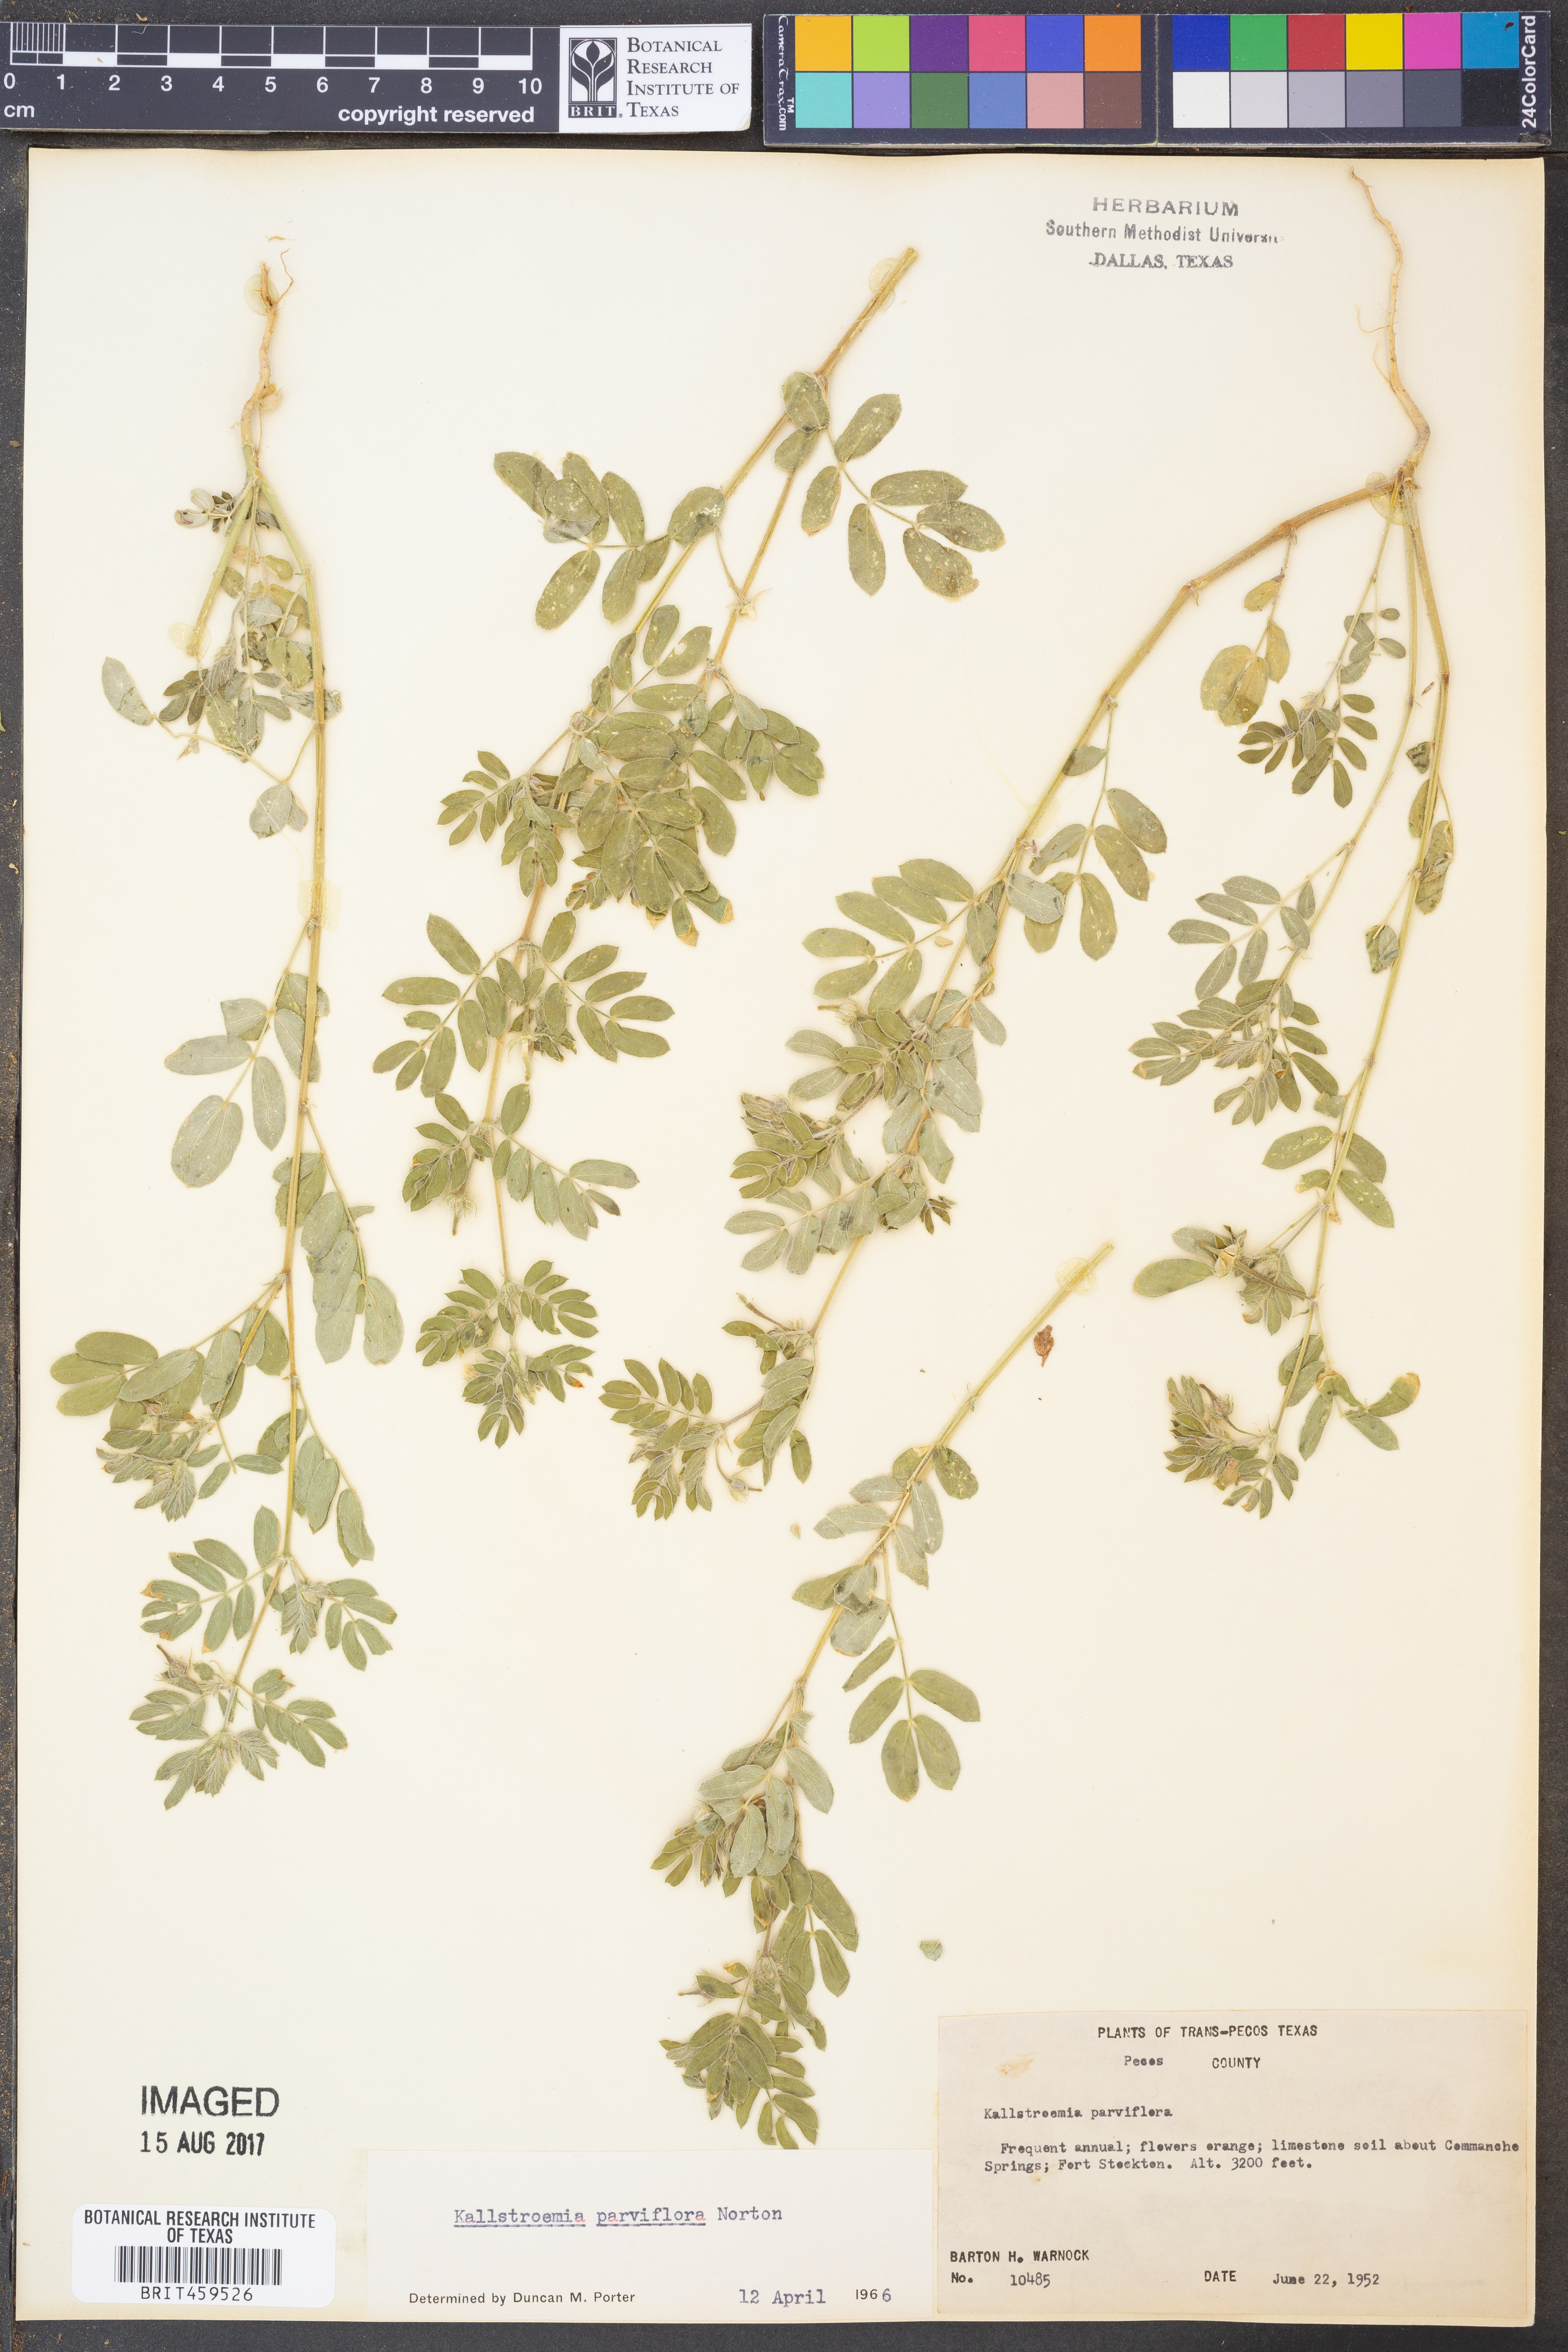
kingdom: Plantae
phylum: Tracheophyta
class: Magnoliopsida
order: Zygophyllales
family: Zygophyllaceae
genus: Kallstroemia
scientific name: Kallstroemia parviflora
